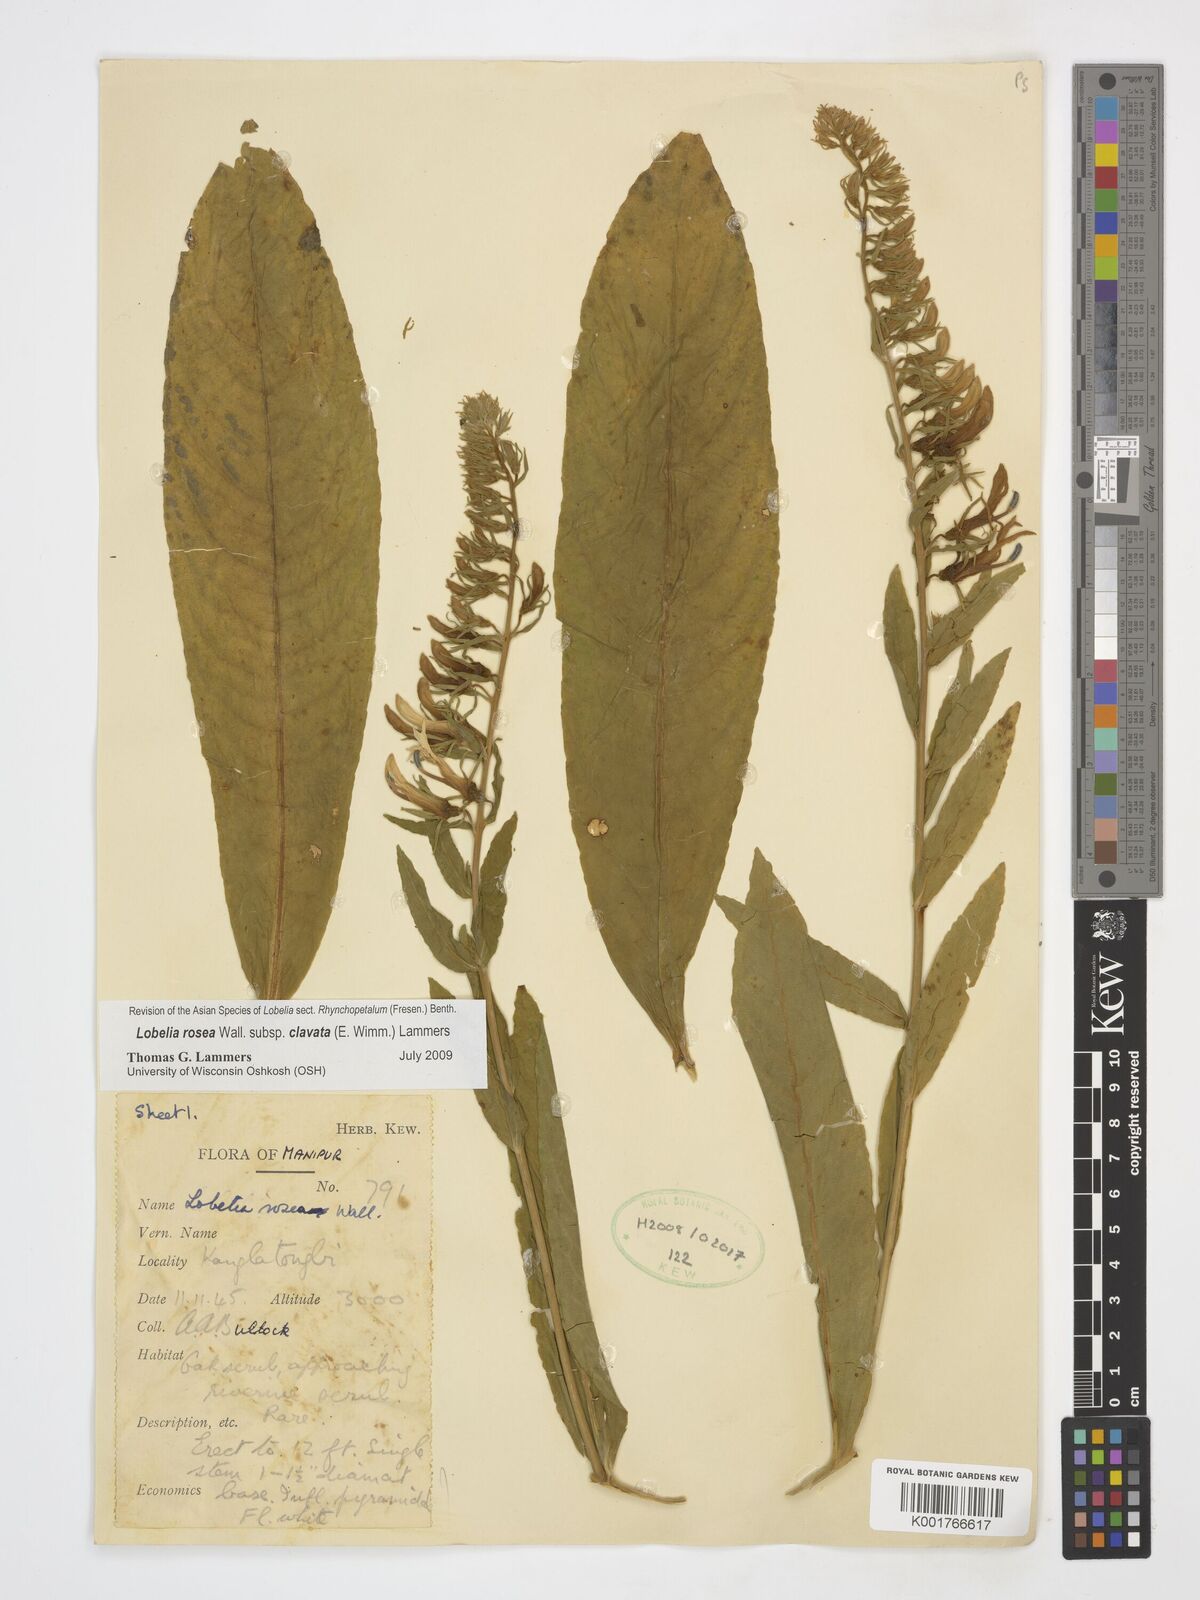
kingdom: Plantae
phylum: Tracheophyta
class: Magnoliopsida
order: Asterales
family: Campanulaceae
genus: Lobelia
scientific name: Lobelia rosea
